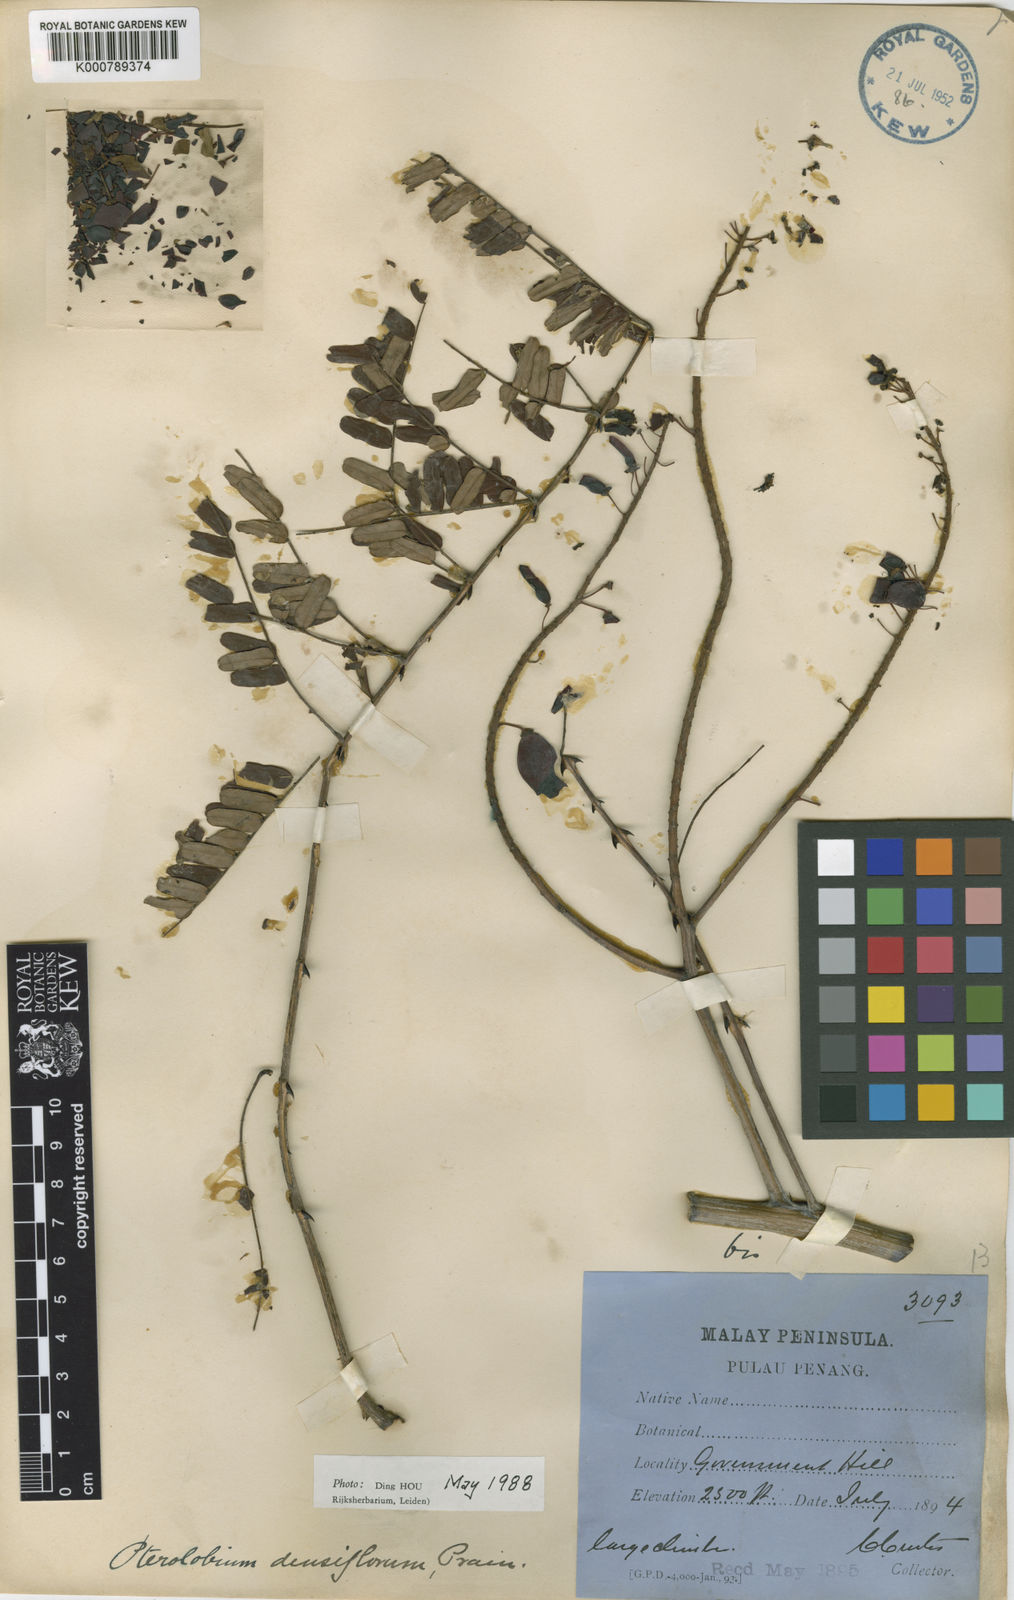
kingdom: Plantae
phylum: Tracheophyta
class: Magnoliopsida
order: Fabales
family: Fabaceae
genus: Pterolobium
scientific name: Pterolobium
